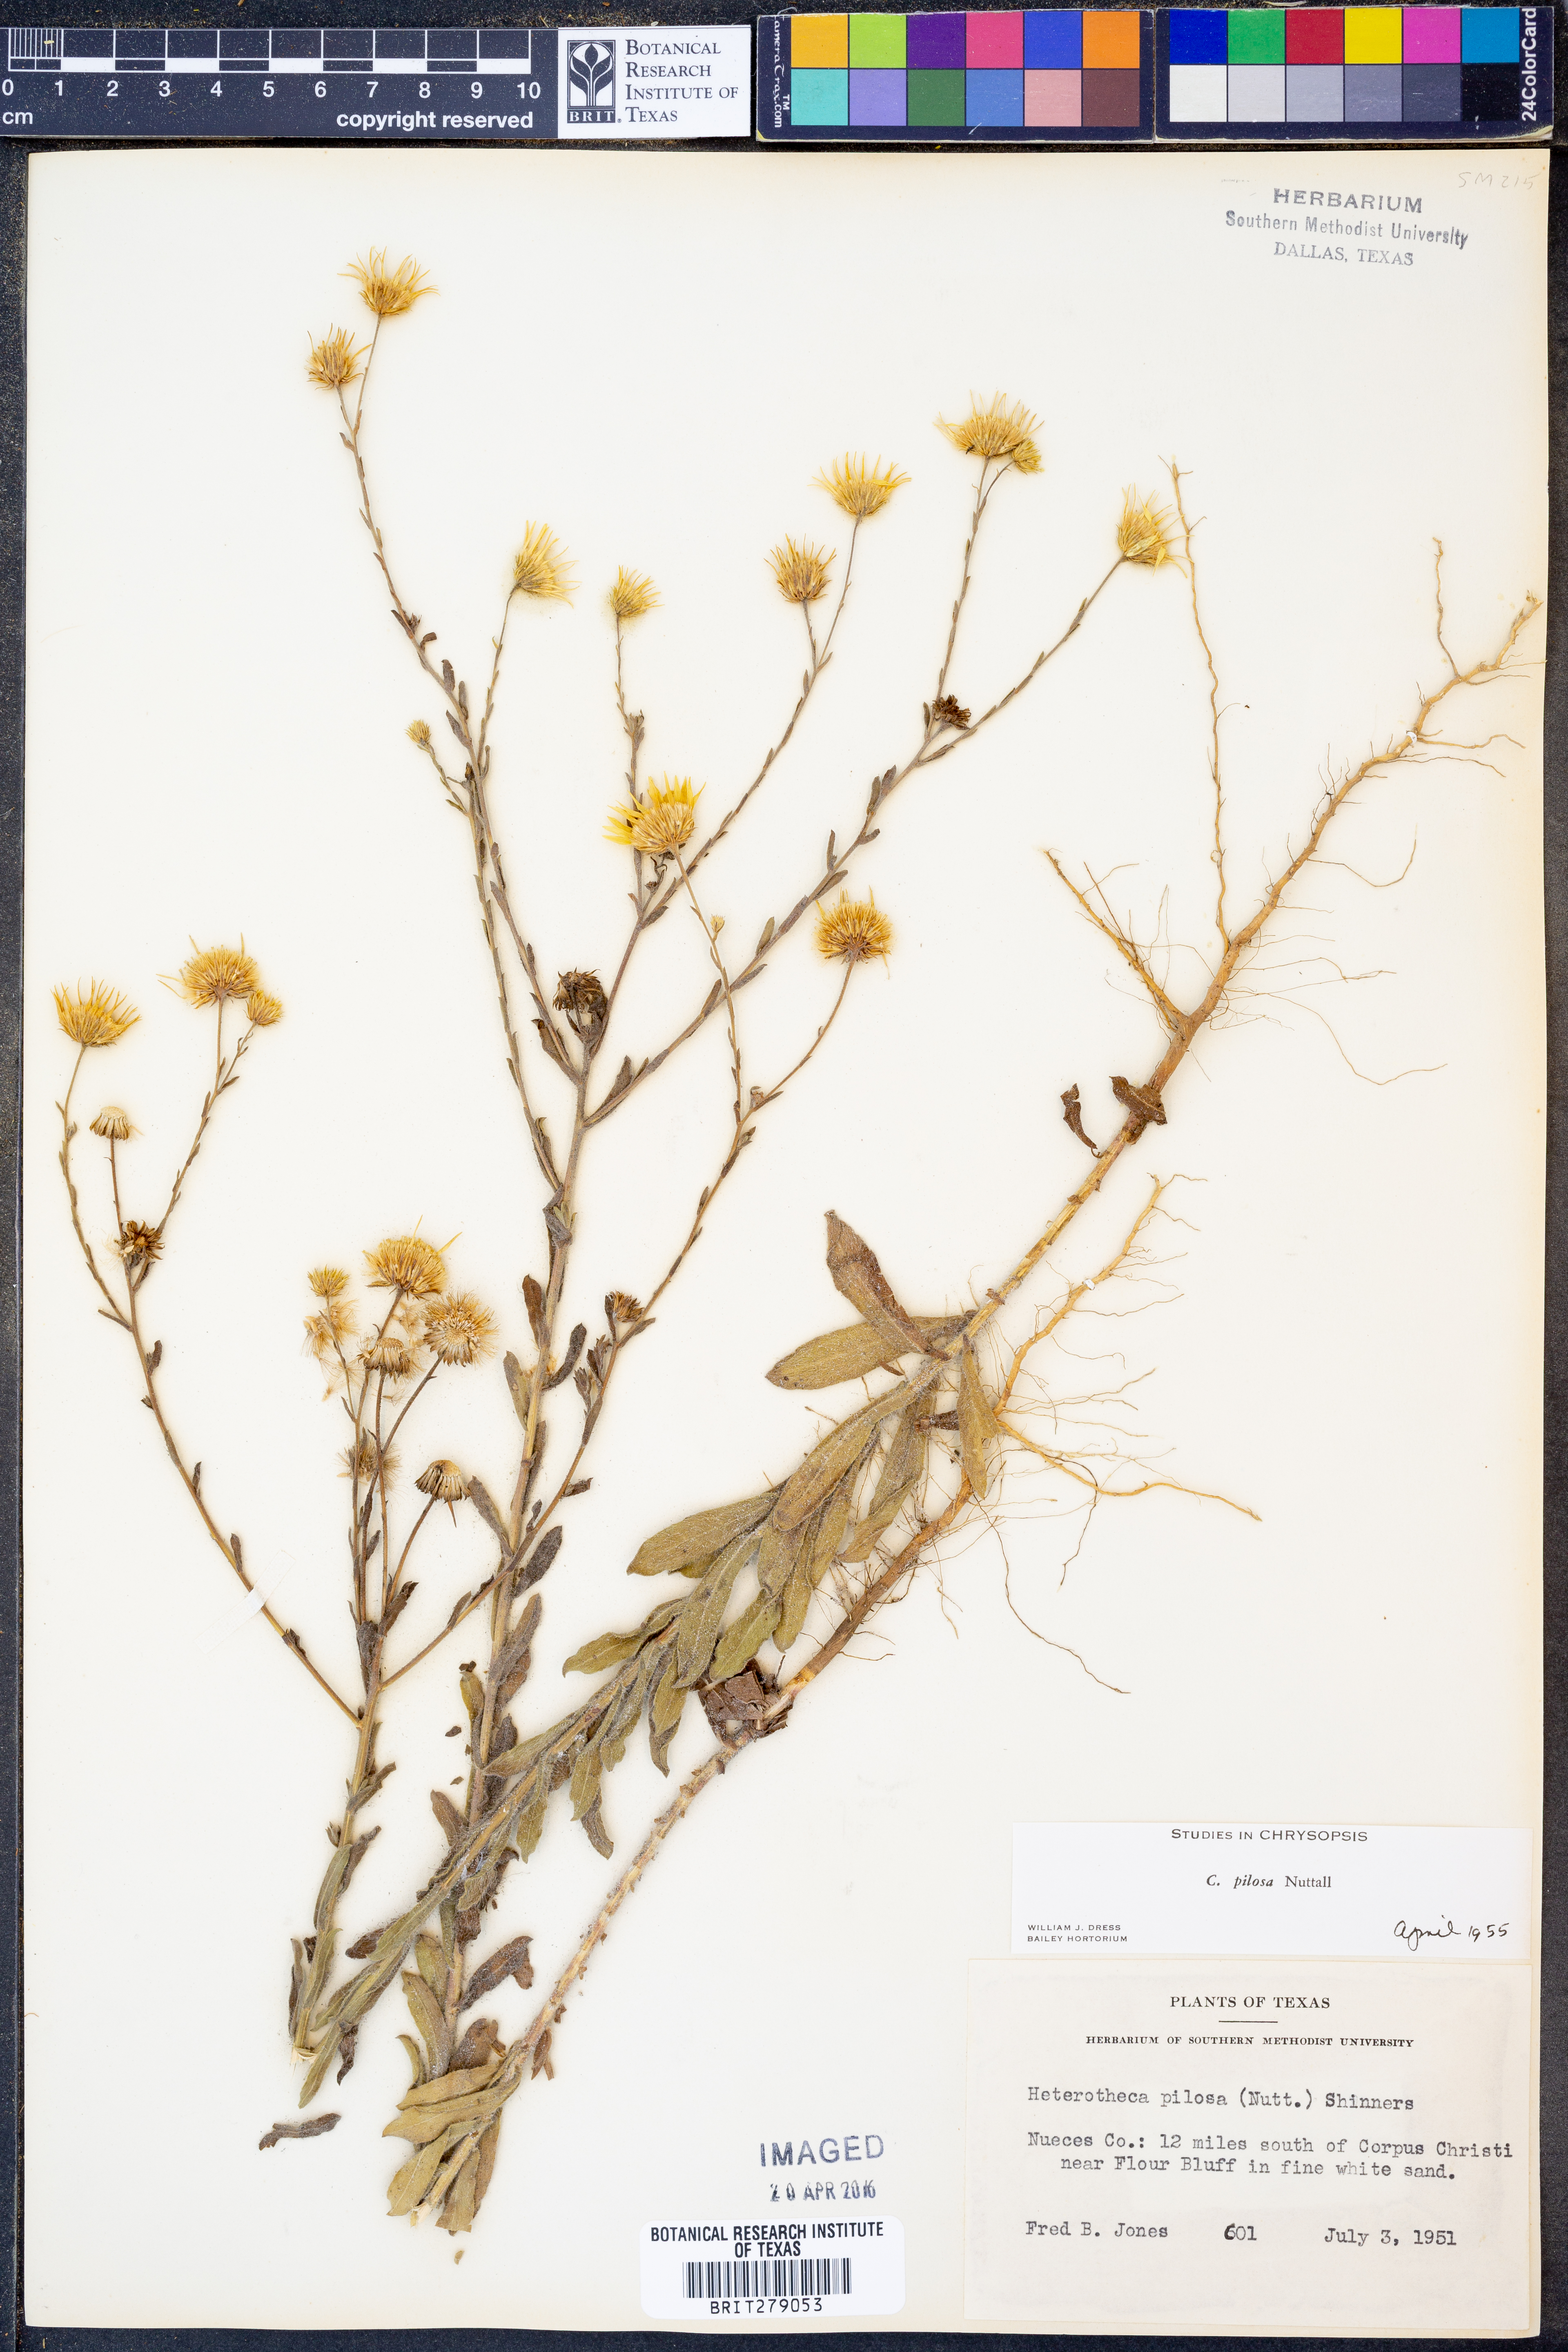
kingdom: Plantae
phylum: Tracheophyta
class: Magnoliopsida
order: Asterales
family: Asteraceae
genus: Bradburia
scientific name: Bradburia pilosa
